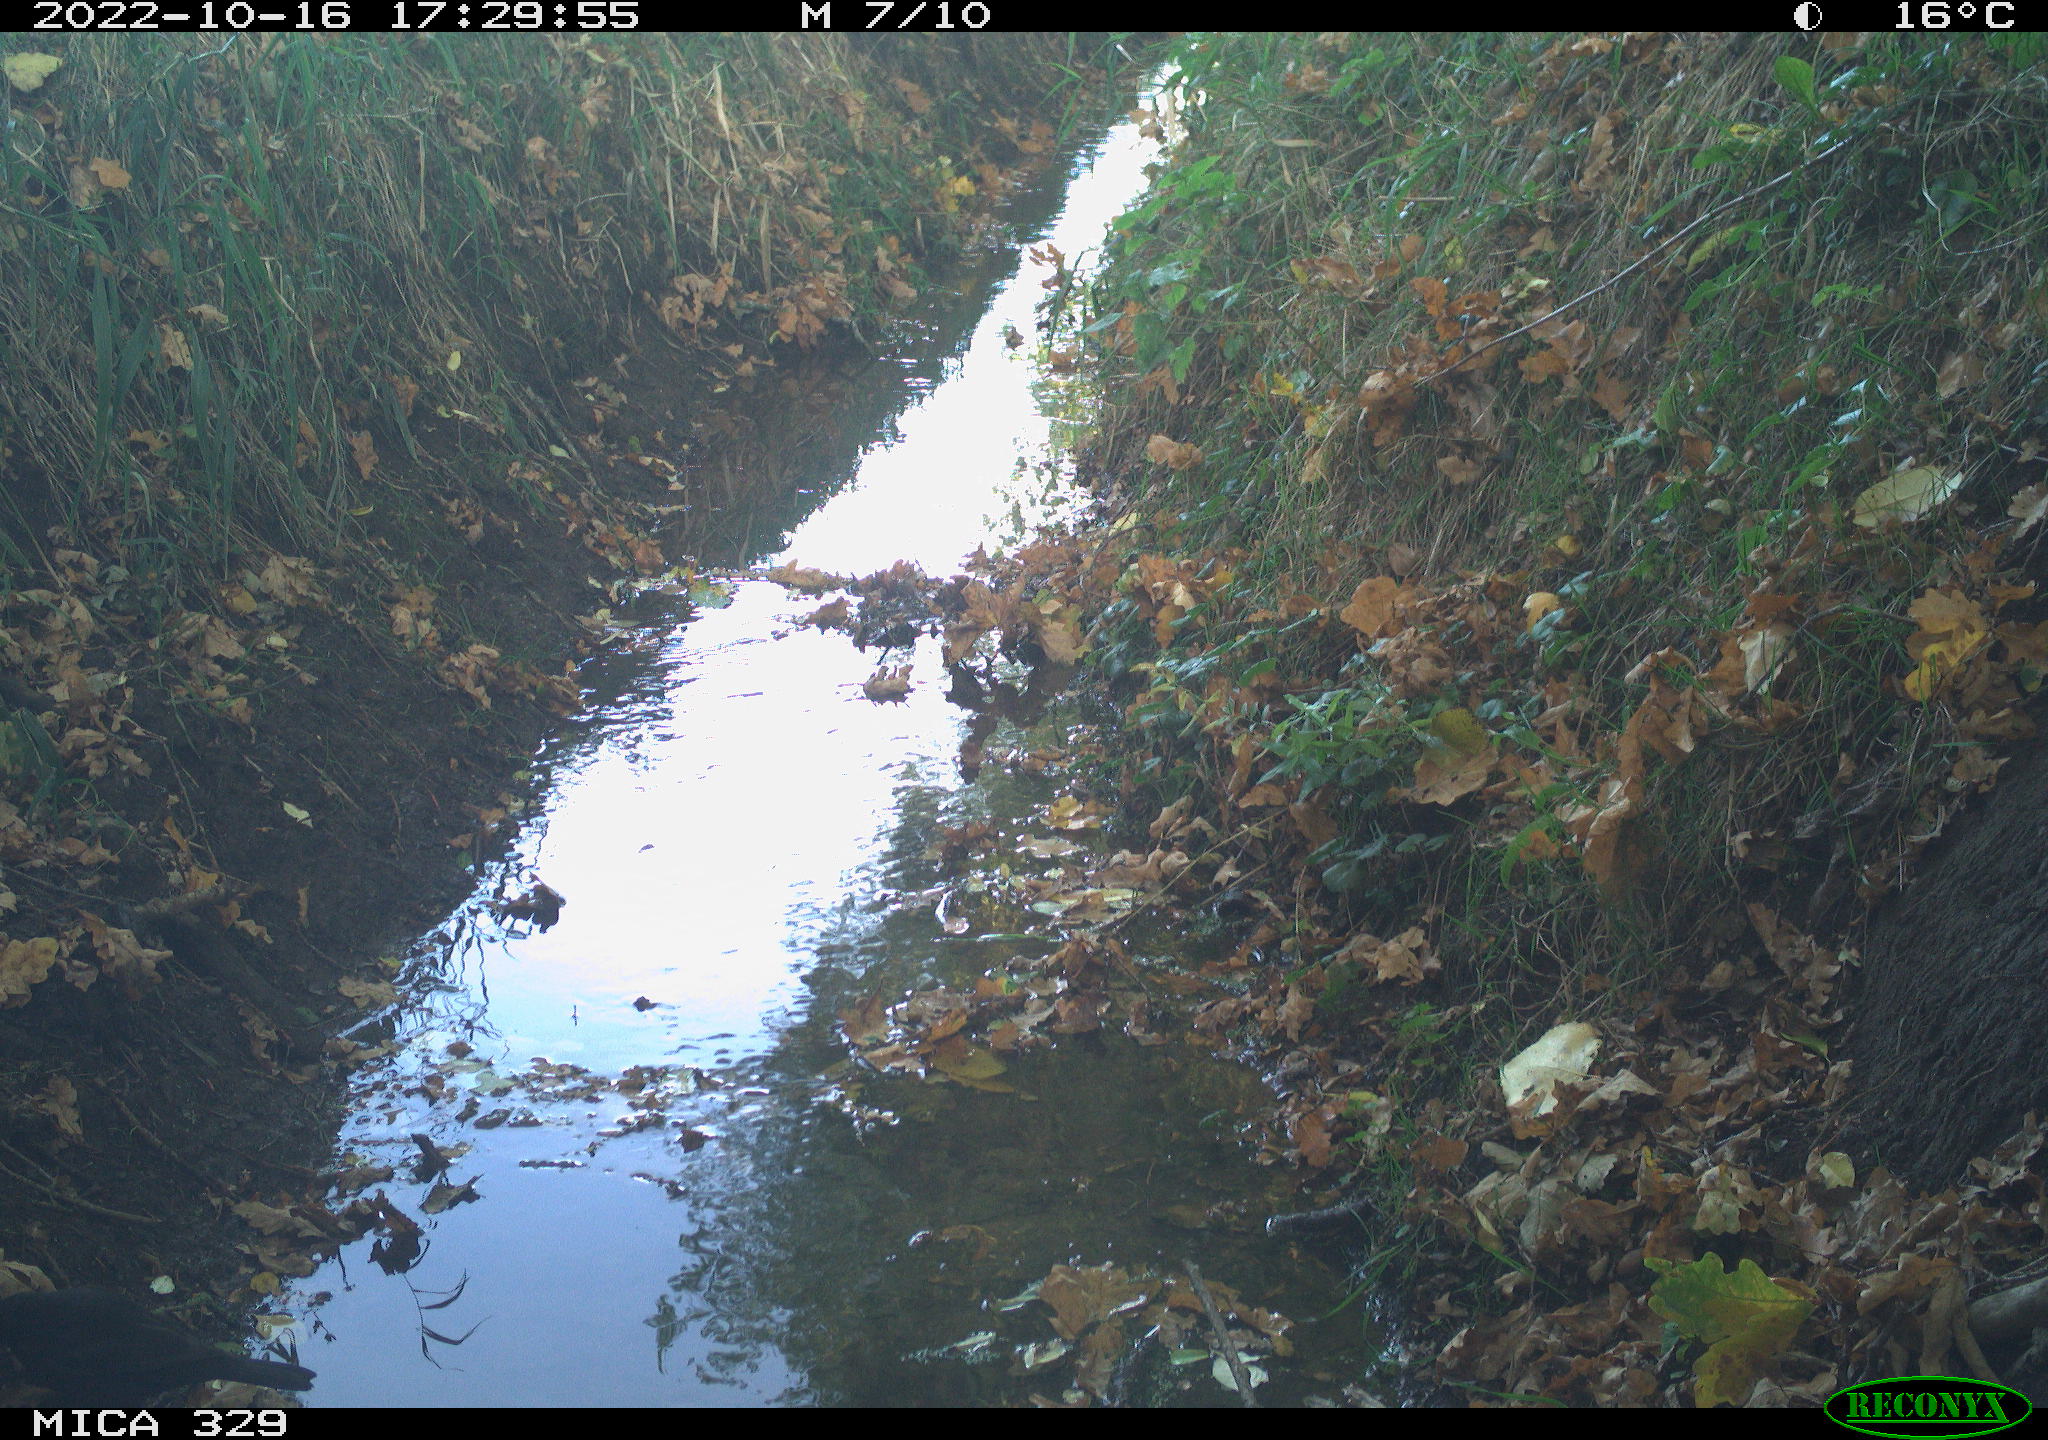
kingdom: Animalia
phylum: Chordata
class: Aves
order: Passeriformes
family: Turdidae
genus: Turdus
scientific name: Turdus
